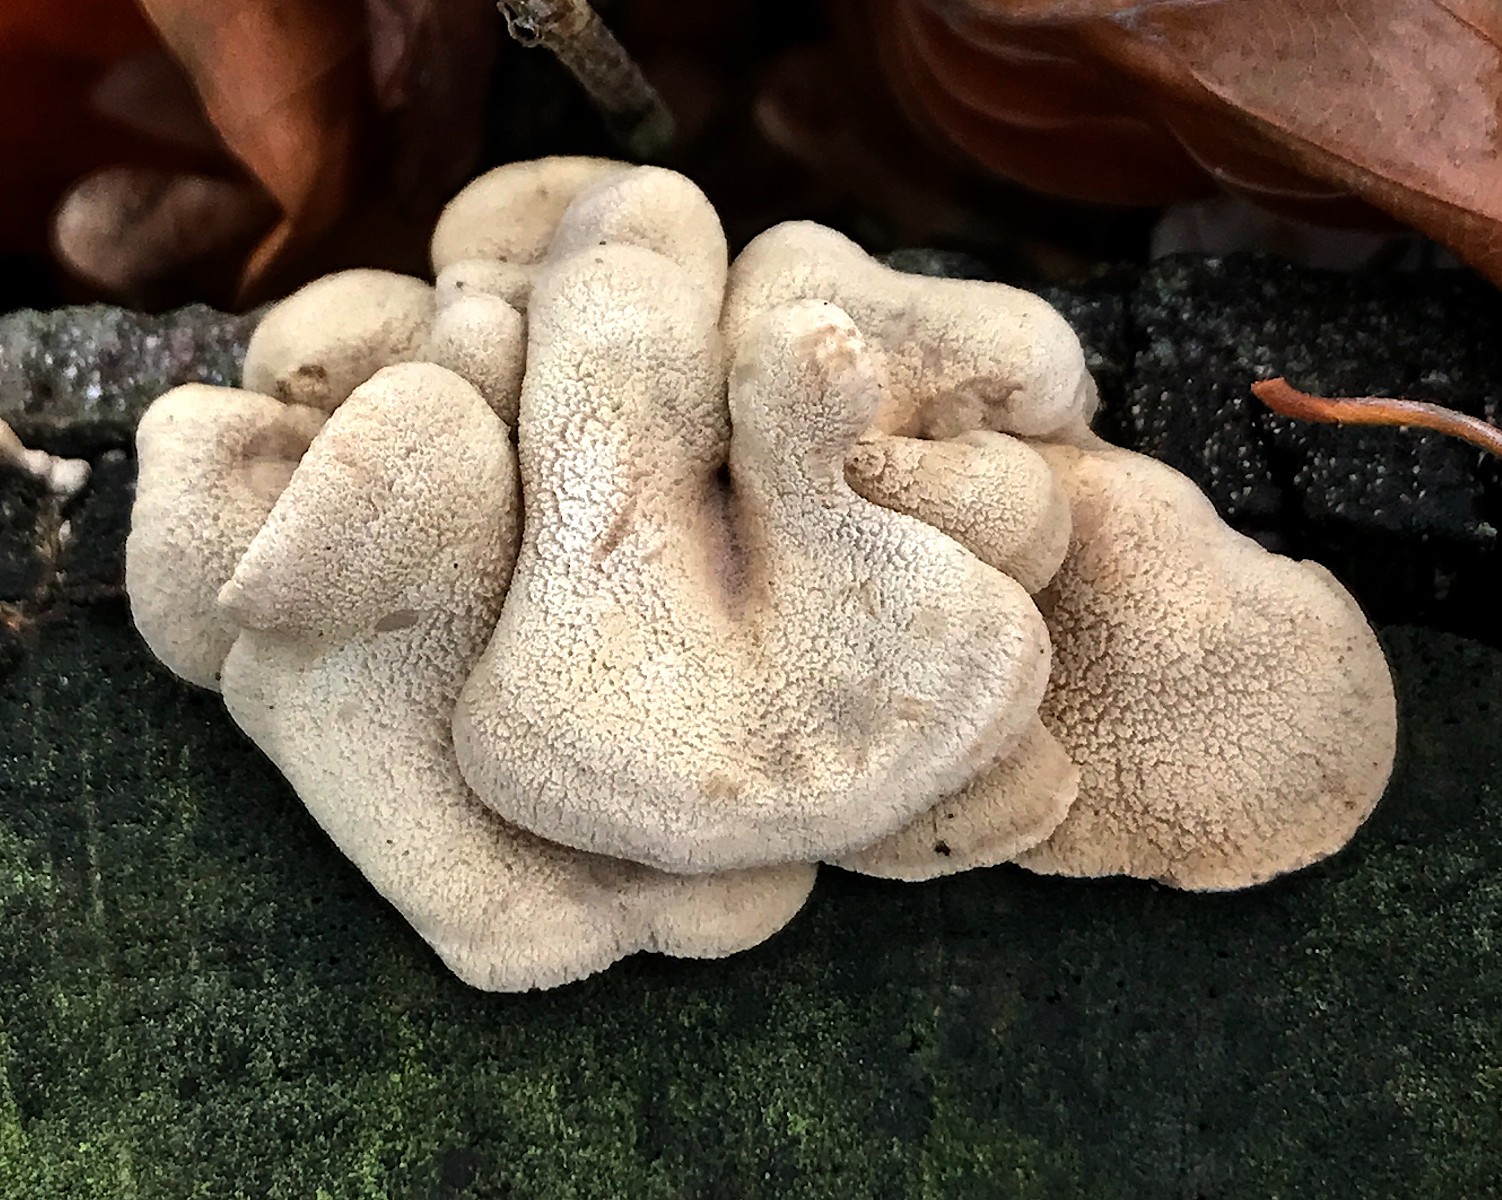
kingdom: Fungi
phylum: Basidiomycota
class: Agaricomycetes
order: Agaricales
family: Mycenaceae
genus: Panellus
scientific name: Panellus stipticus
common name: kliddet epaulethat
